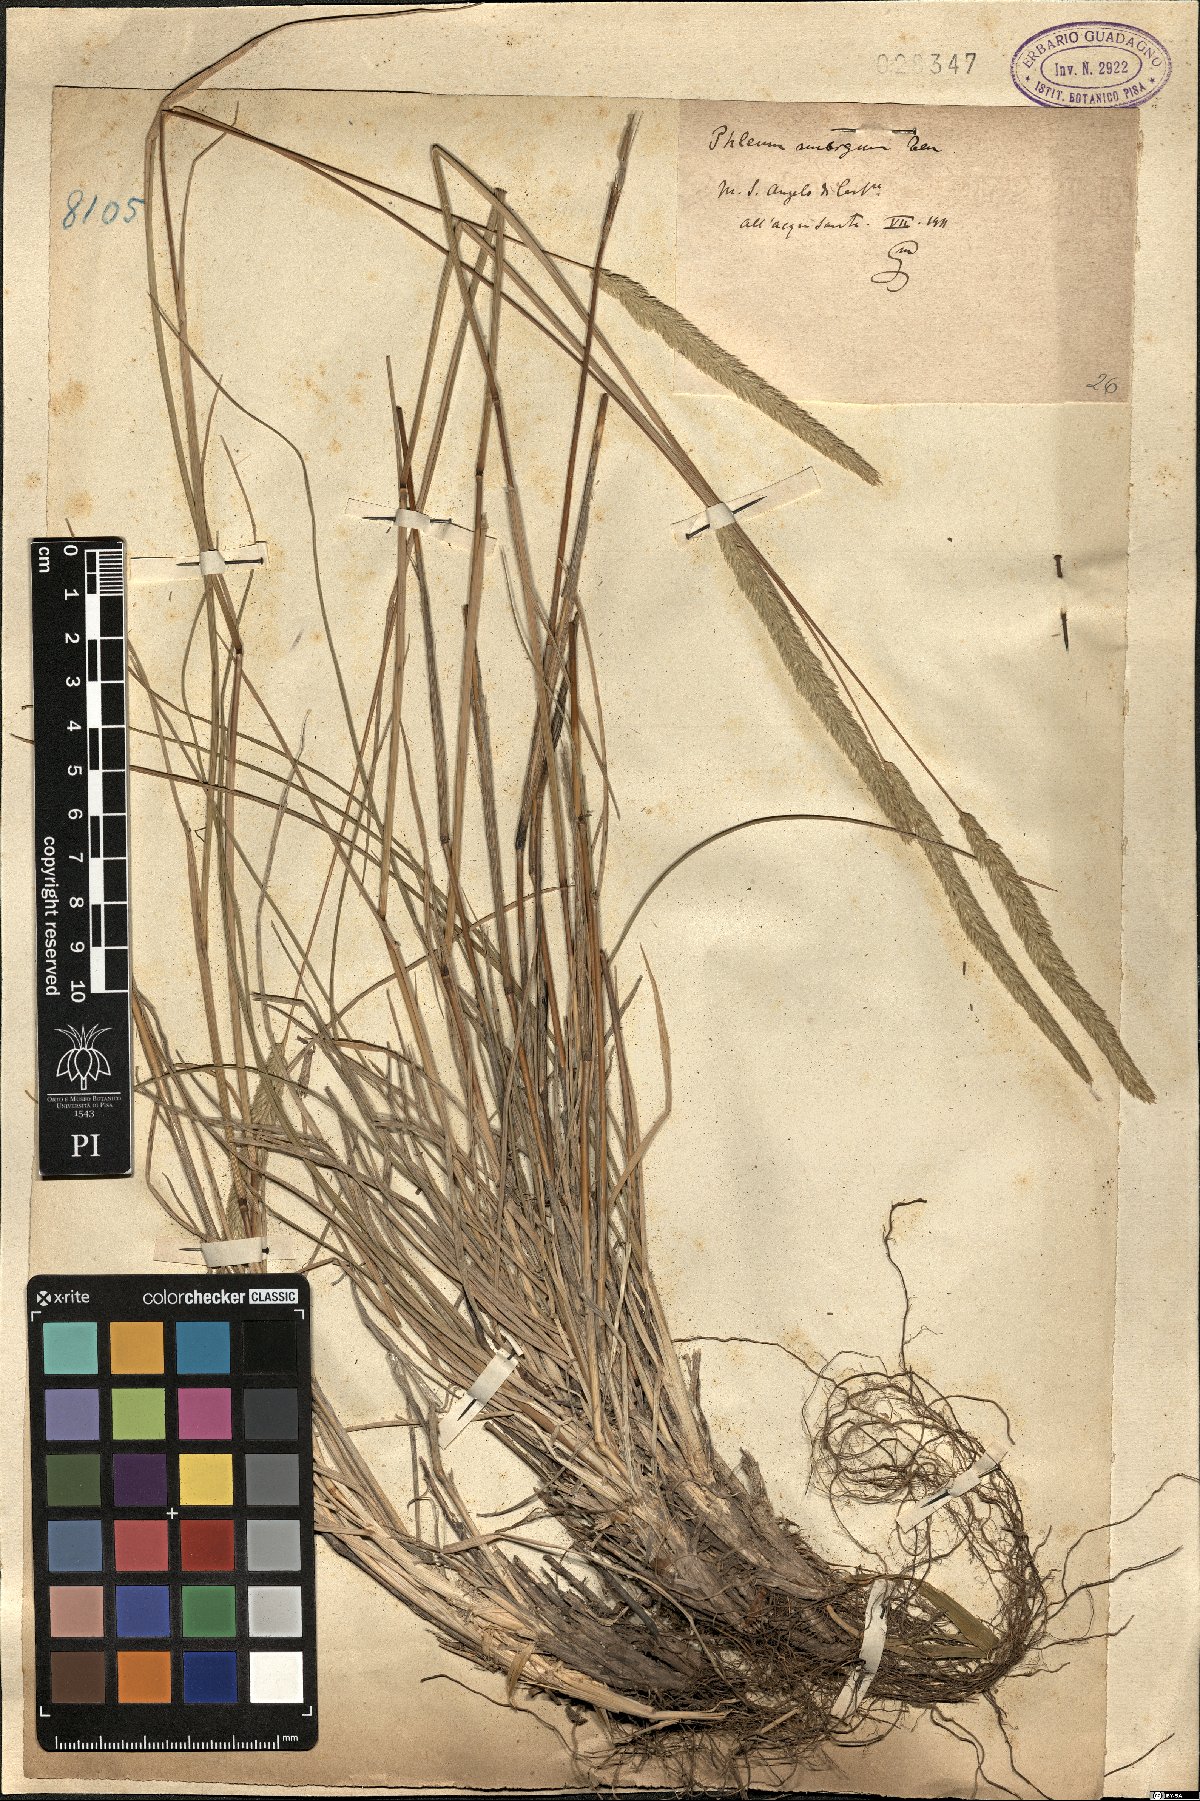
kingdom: Plantae
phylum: Tracheophyta
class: Liliopsida
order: Poales
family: Poaceae
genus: Phleum
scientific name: Phleum hirsutum
